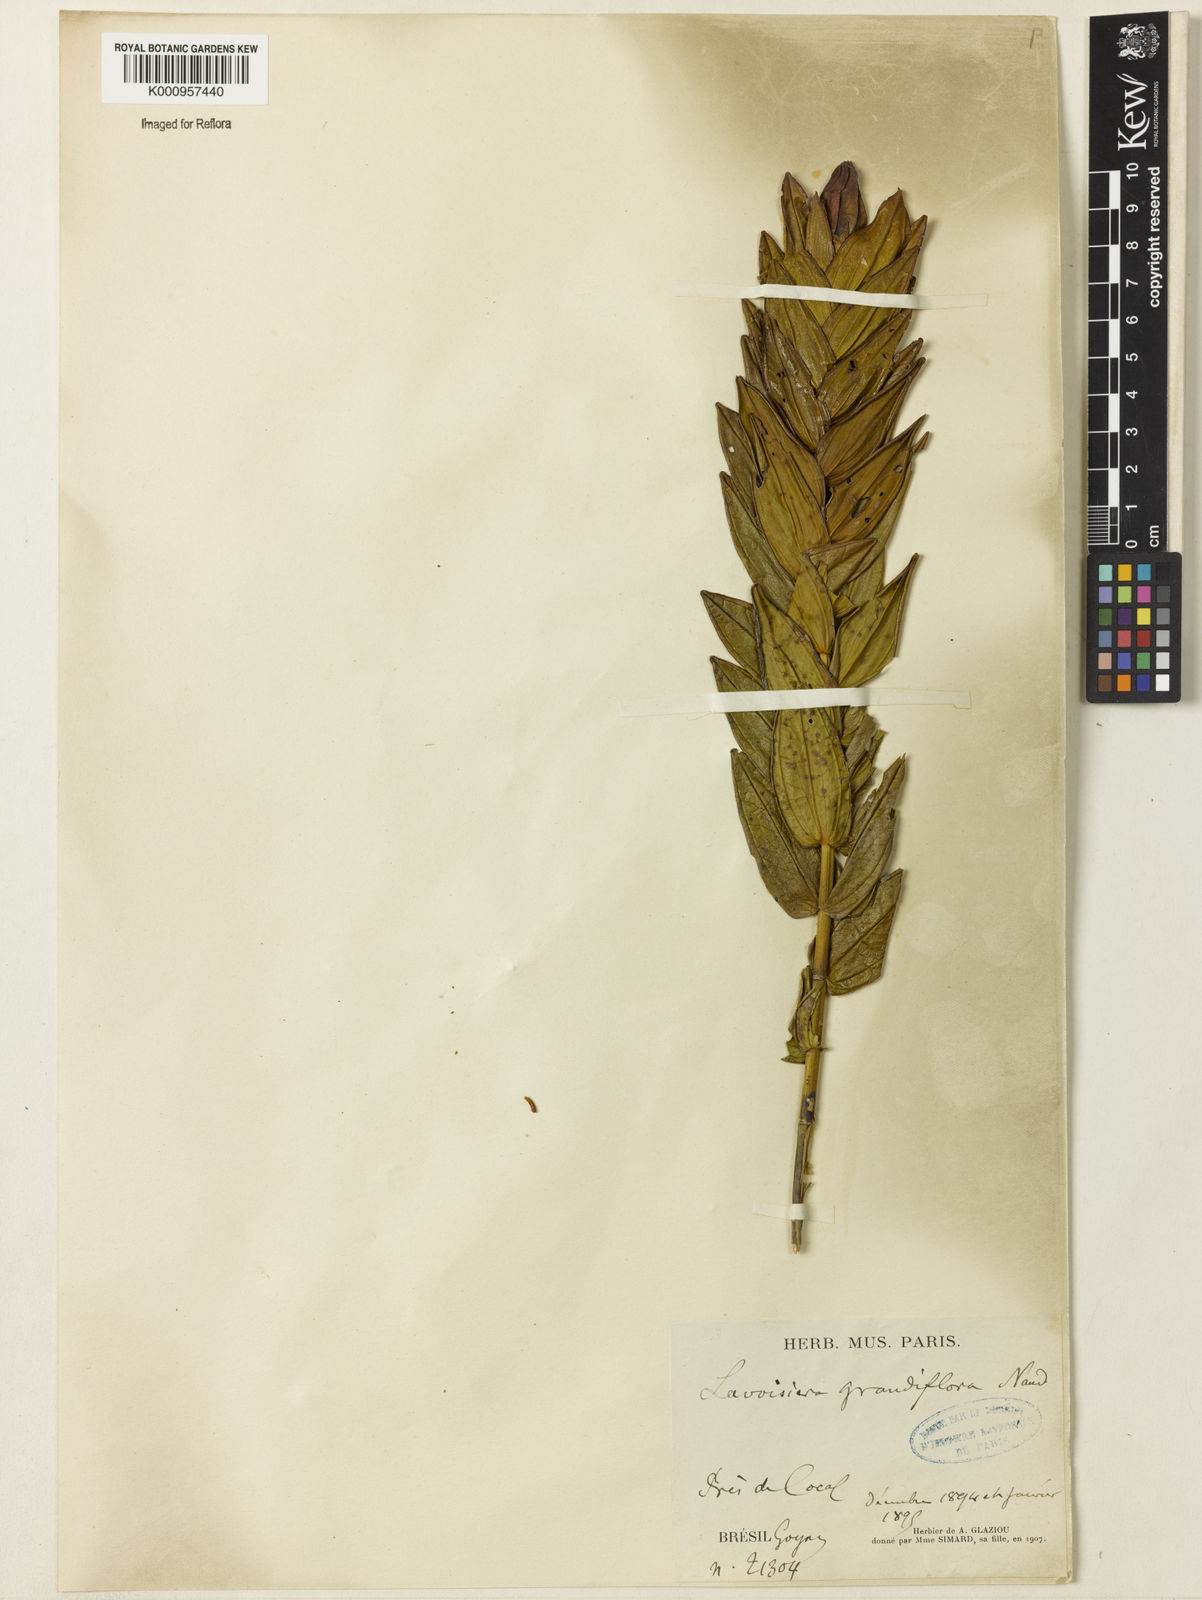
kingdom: Plantae
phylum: Tracheophyta
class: Magnoliopsida
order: Myrtales
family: Melastomataceae
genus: Microlicia
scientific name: Microlicia macrantha
